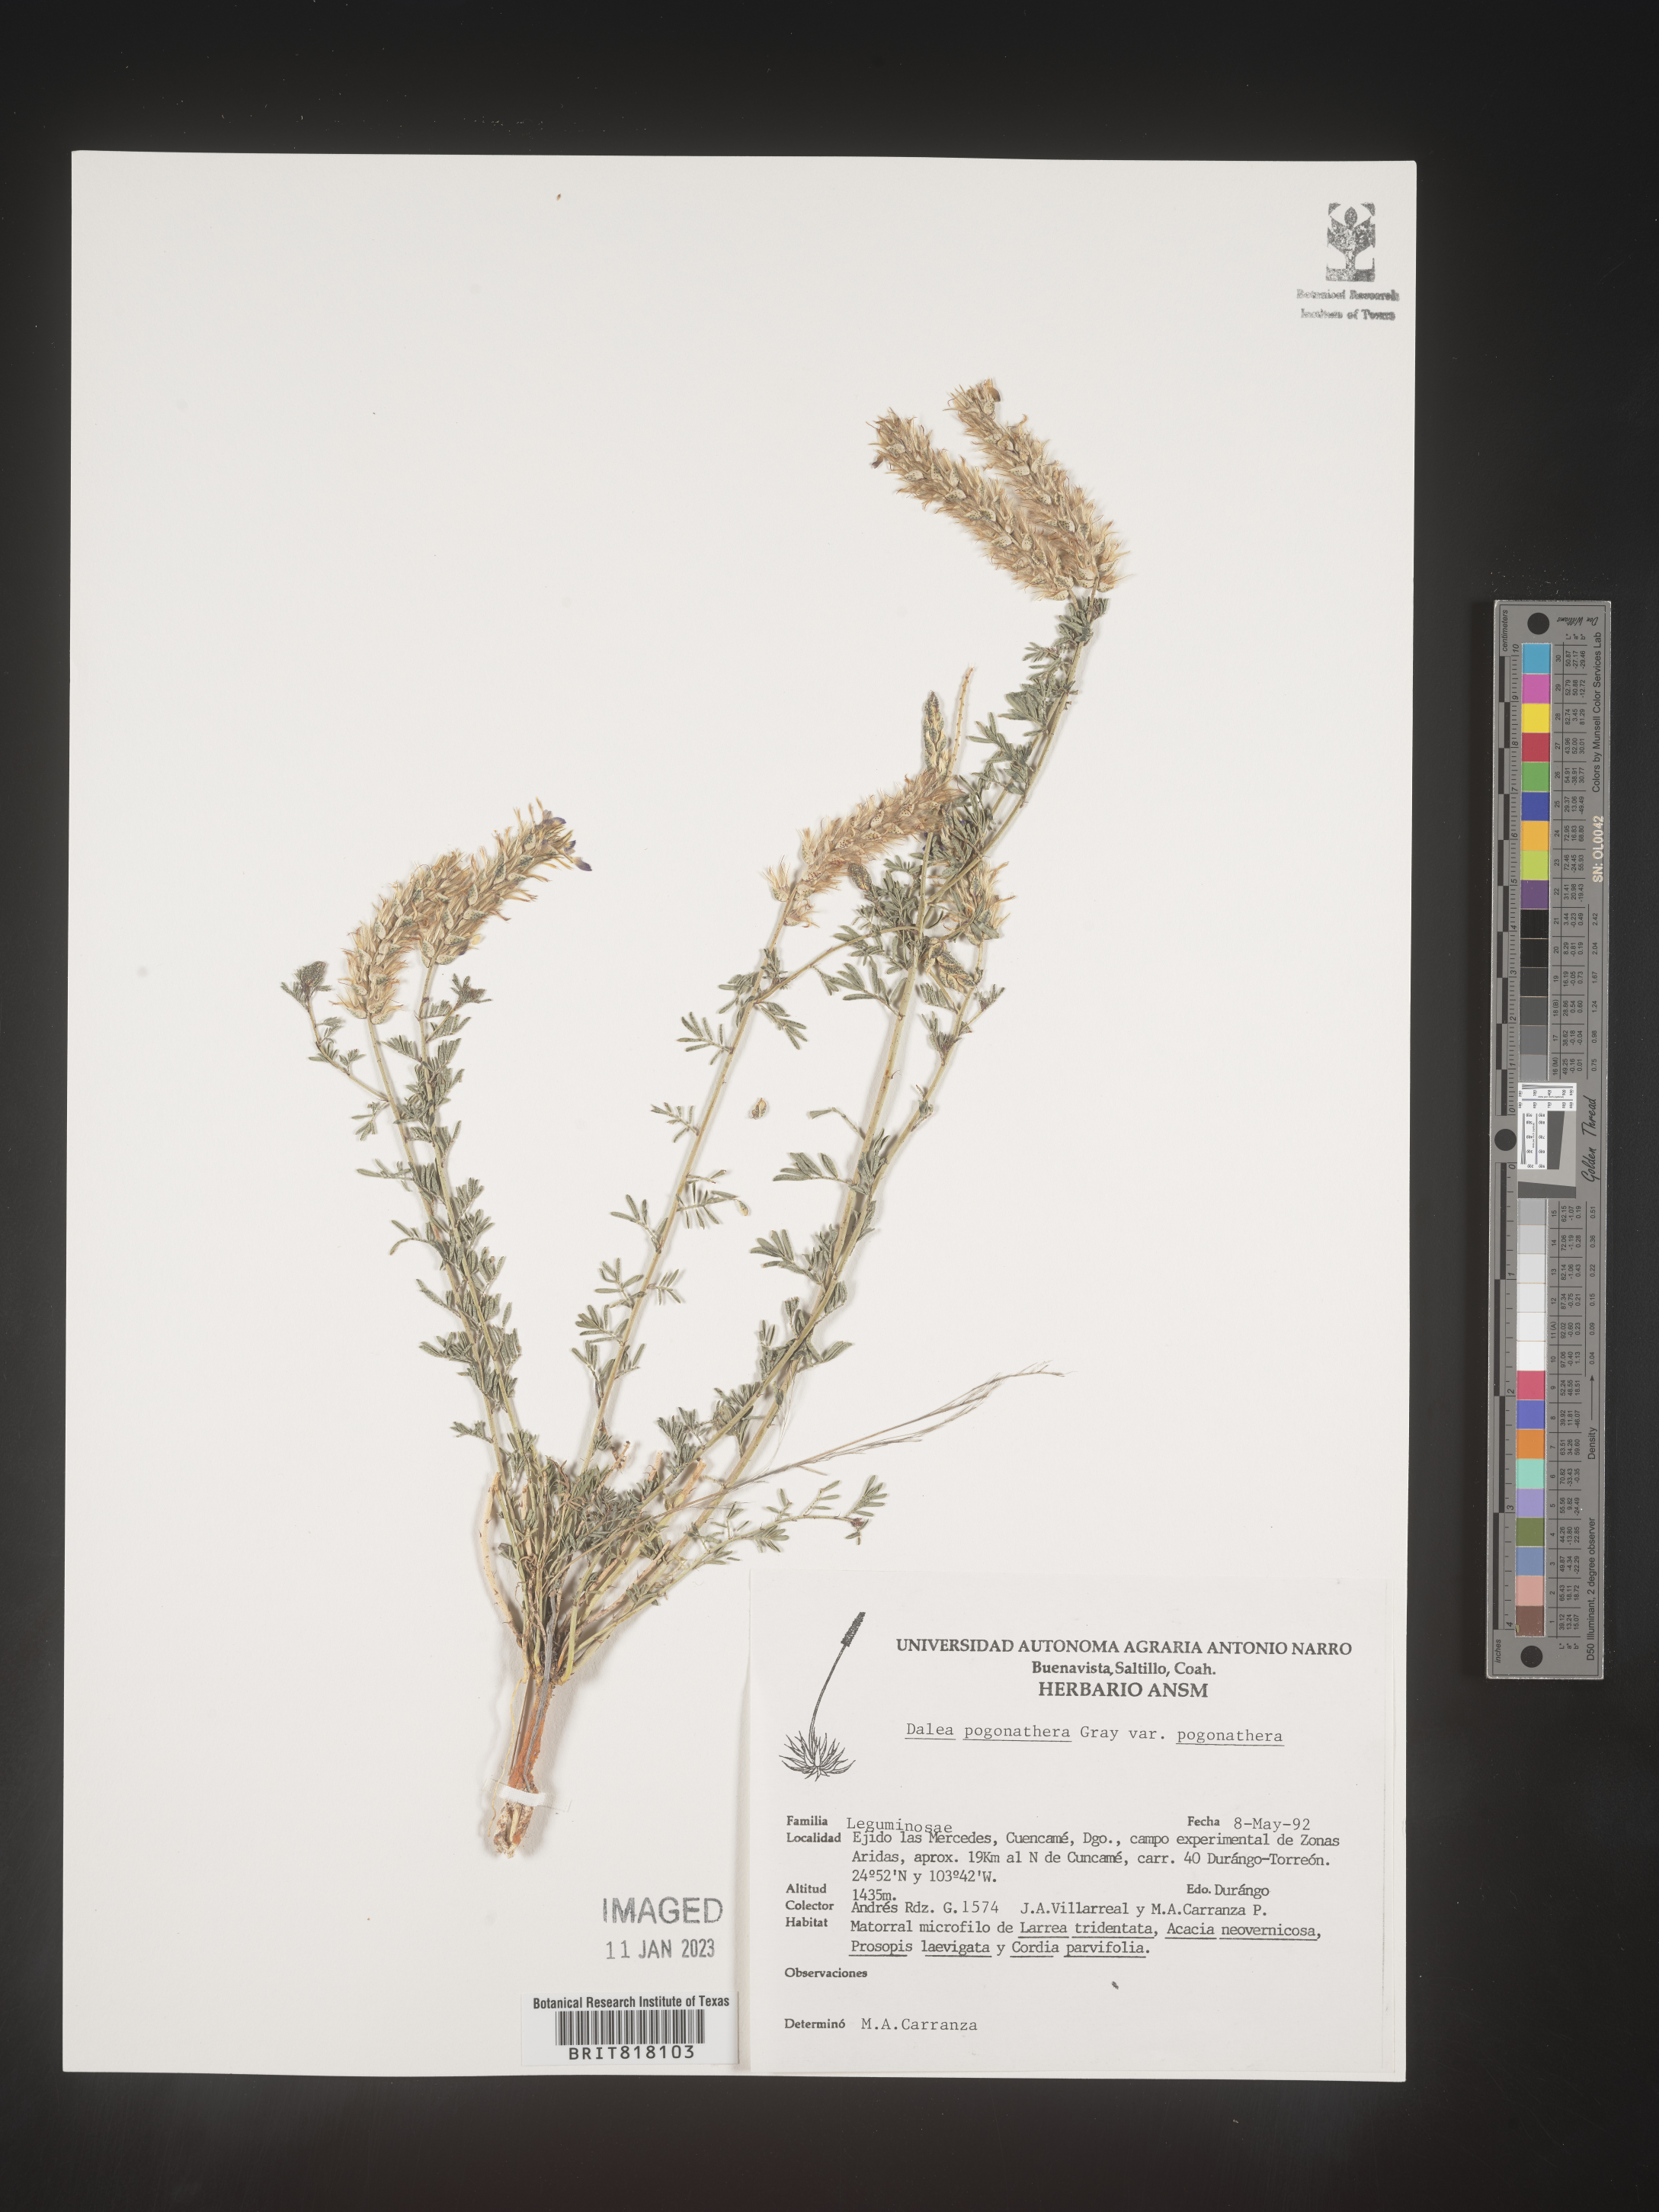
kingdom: Plantae
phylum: Tracheophyta
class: Magnoliopsida
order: Fabales
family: Fabaceae
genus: Dalea
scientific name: Dalea
